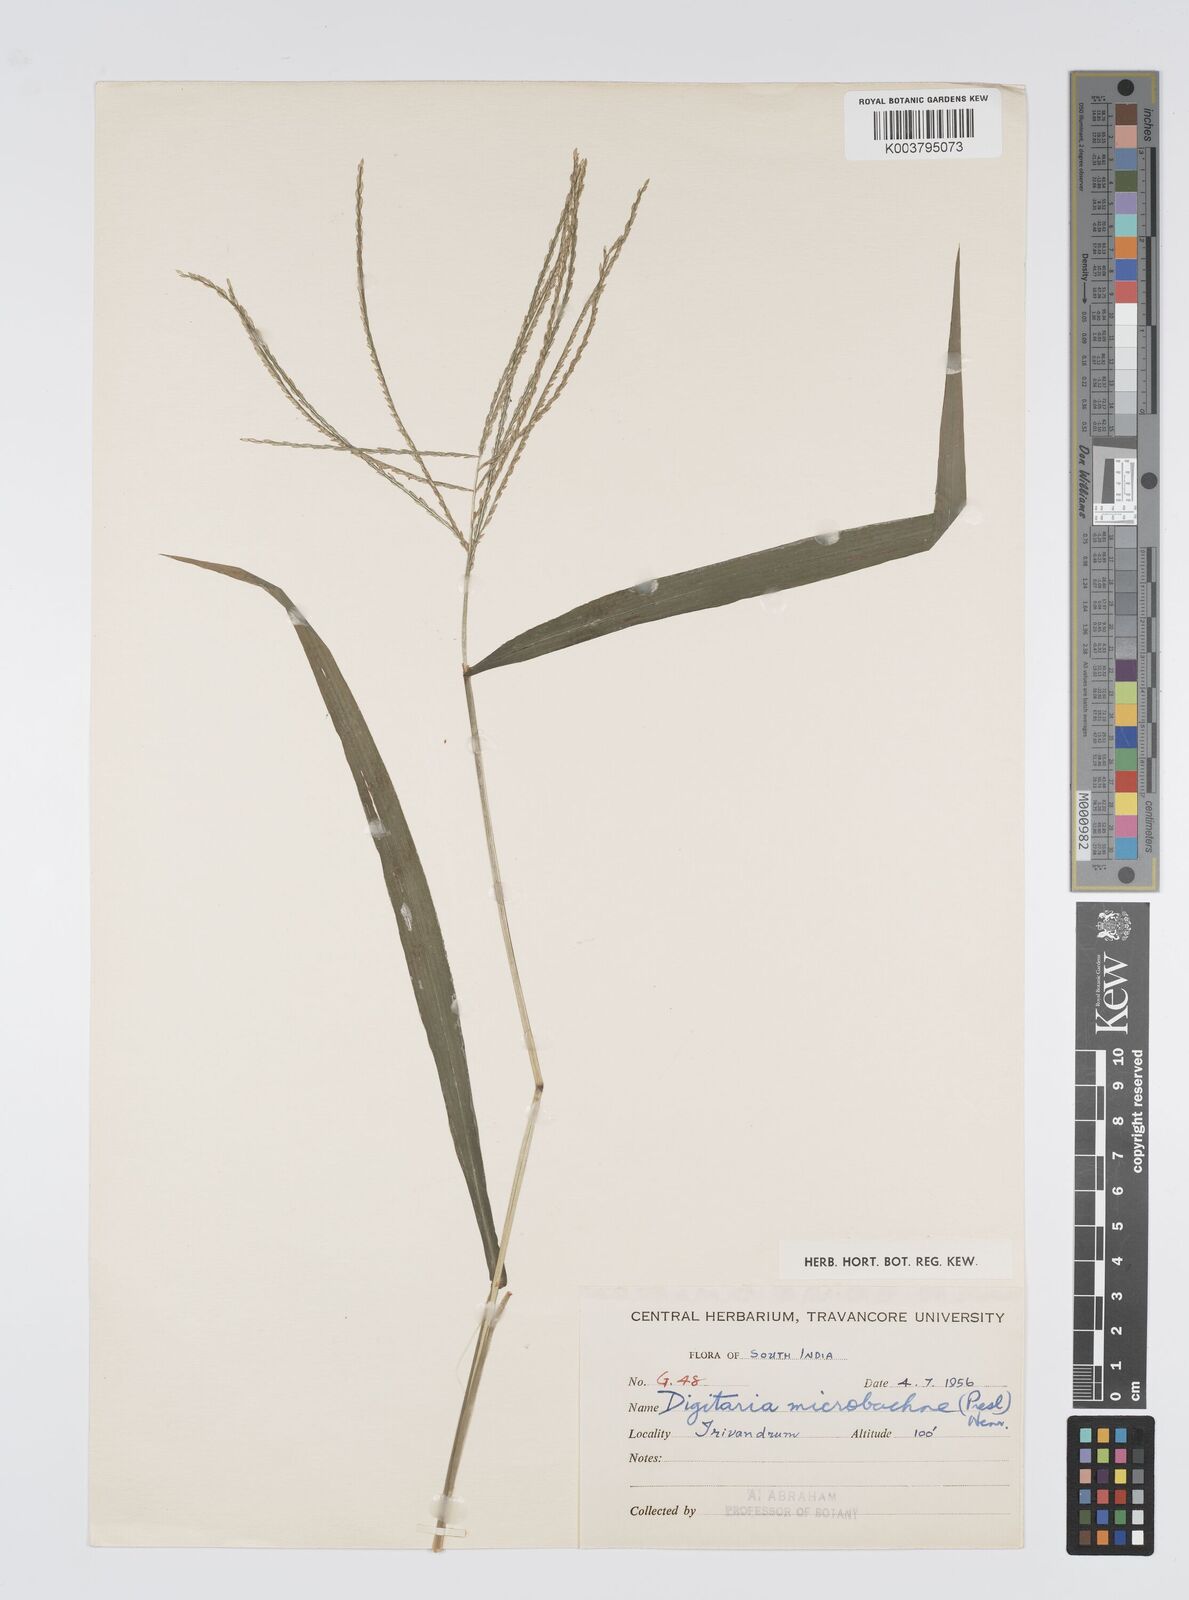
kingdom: Plantae
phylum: Tracheophyta
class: Liliopsida
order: Poales
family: Poaceae
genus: Digitaria
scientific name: Digitaria setigera
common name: East indian crabgrass
